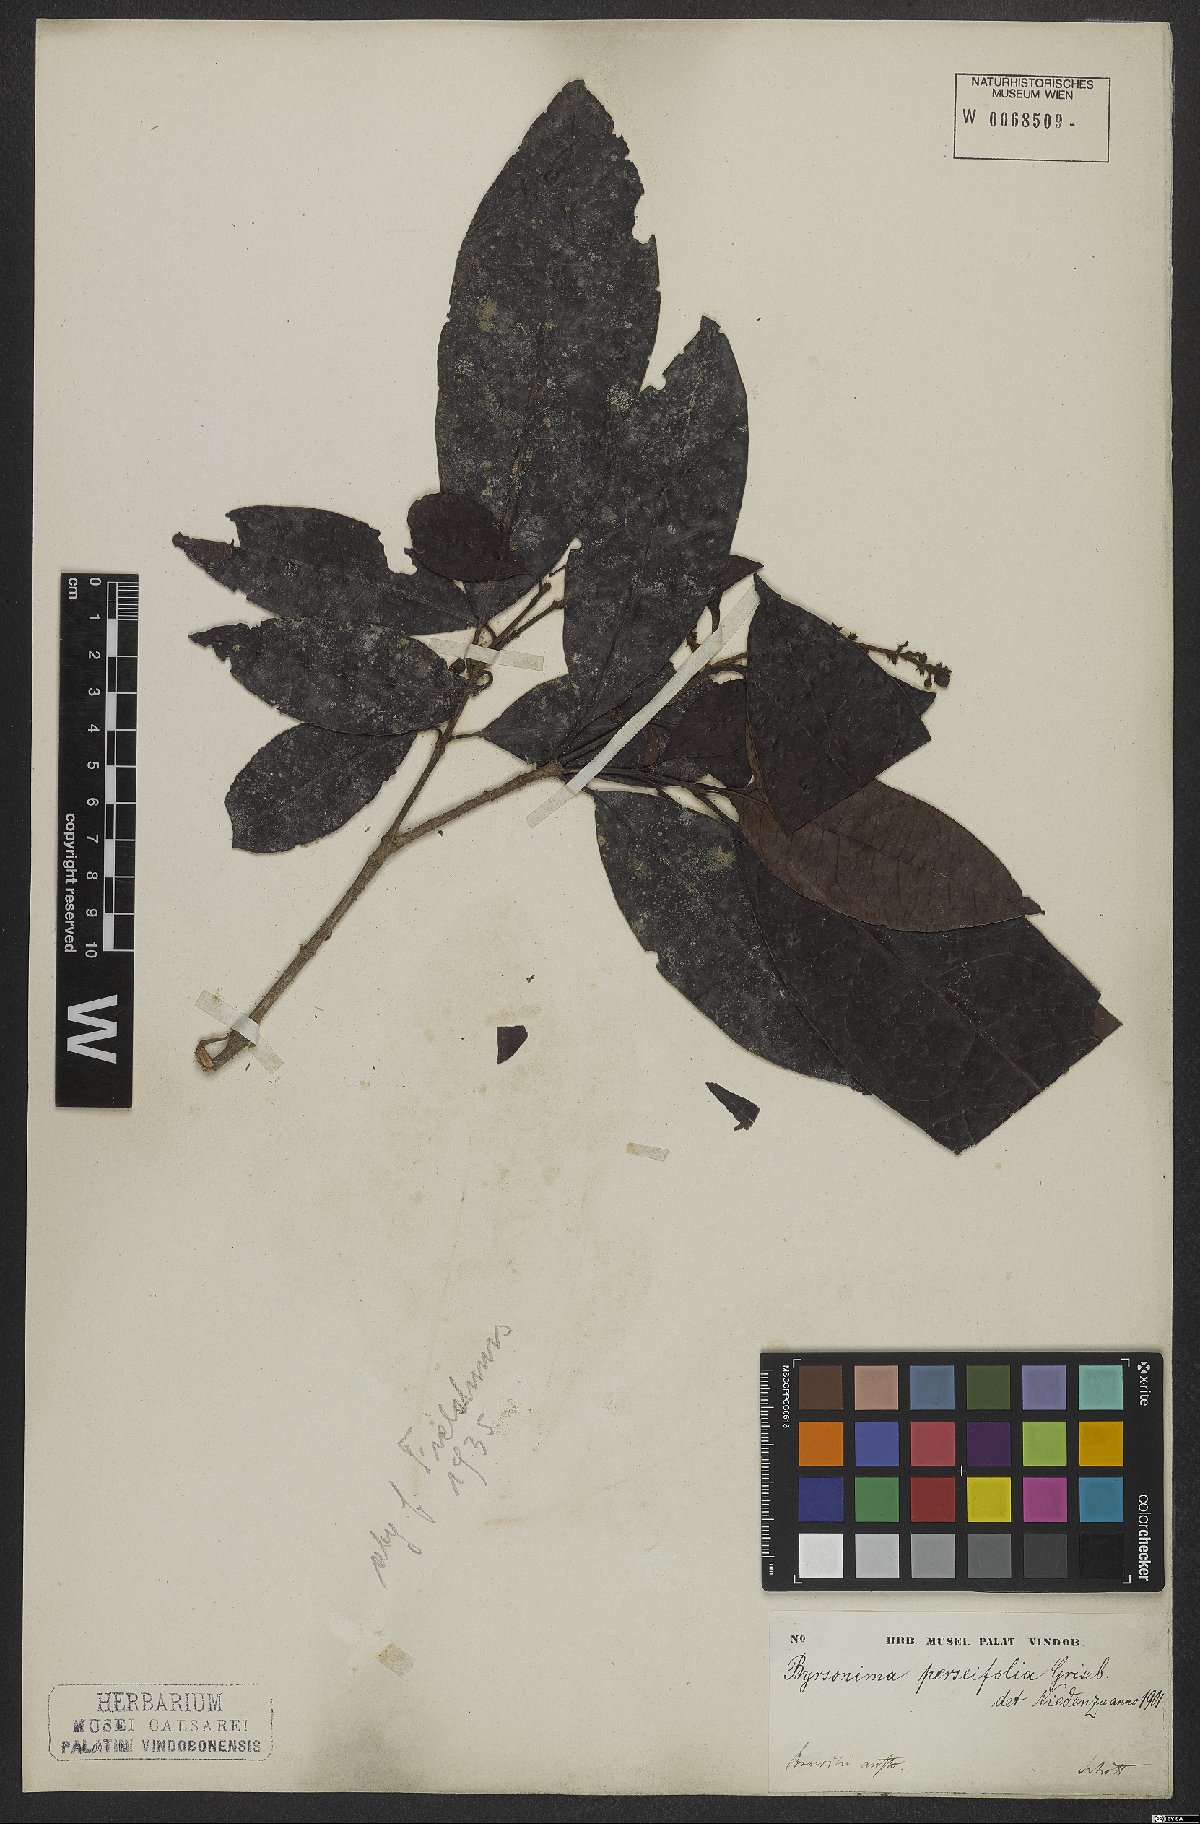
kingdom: Plantae
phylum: Tracheophyta
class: Magnoliopsida
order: Malpighiales
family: Malpighiaceae
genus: Byrsonima
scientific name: Byrsonima perseifolia
